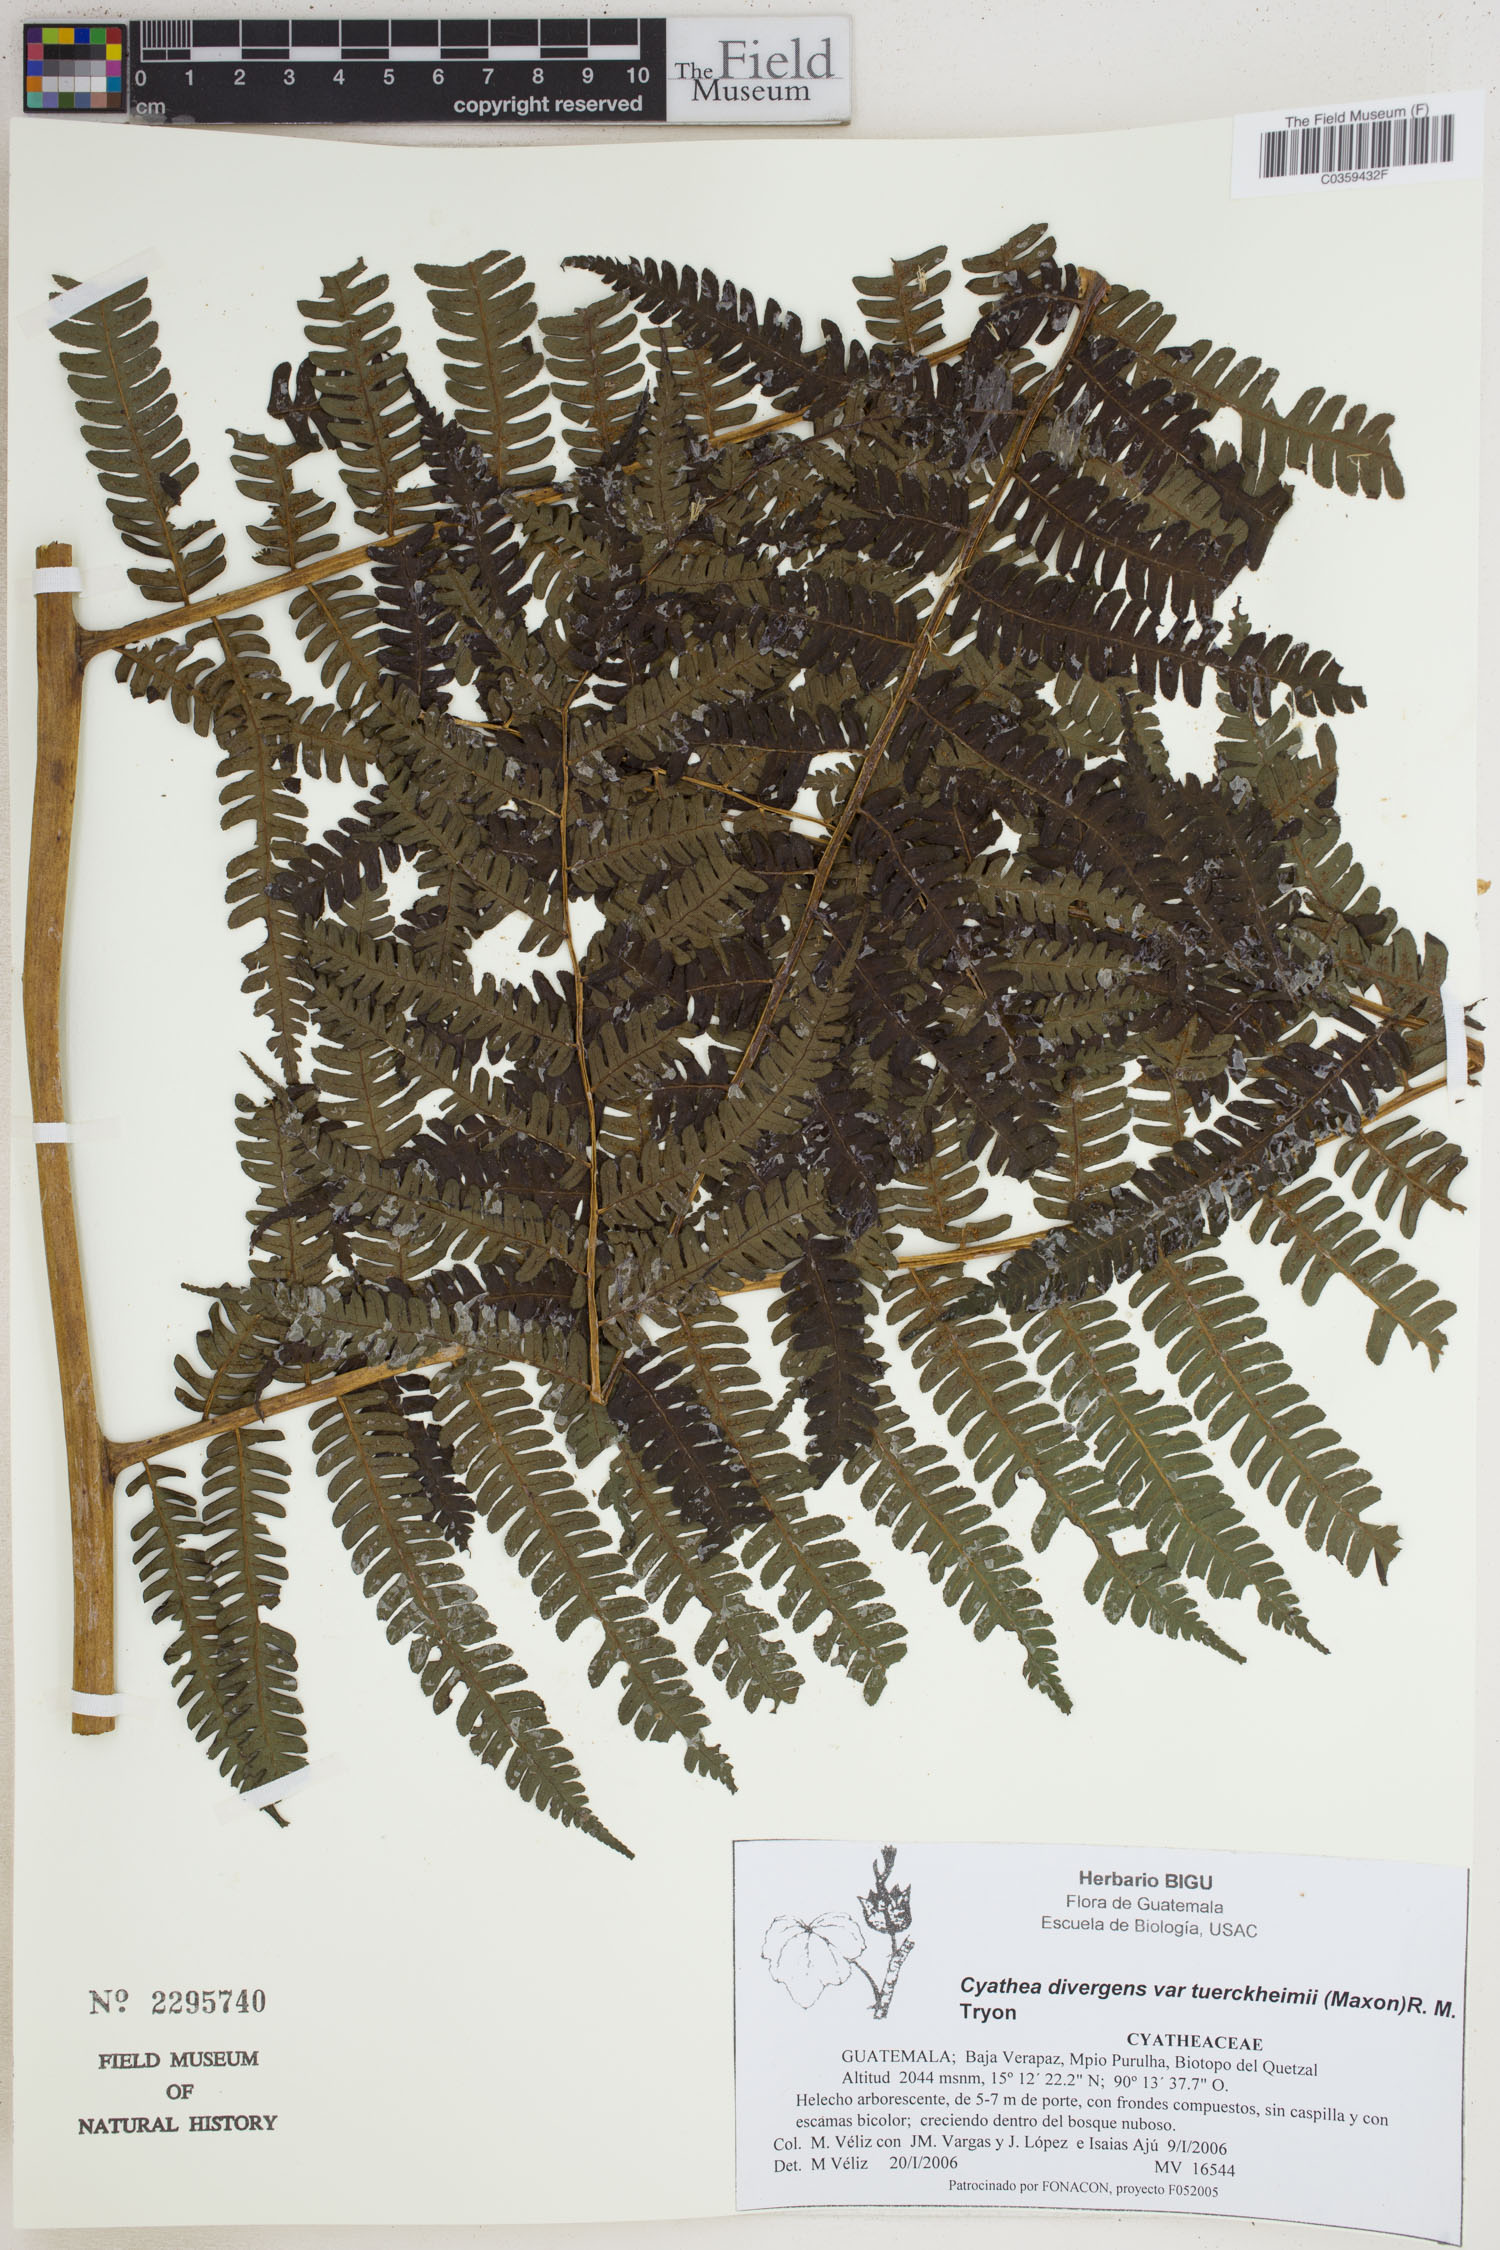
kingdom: Plantae
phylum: Tracheophyta
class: Polypodiopsida
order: Cyatheales
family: Cyatheaceae
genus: Cyathea
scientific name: Cyathea tuerckheimii
